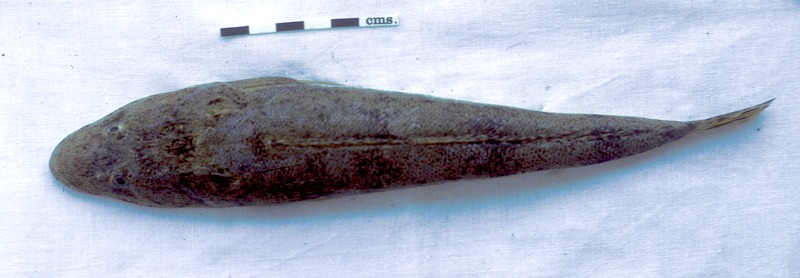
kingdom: Animalia
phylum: Chordata
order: Scorpaeniformes
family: Platycephalidae
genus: Platycephalus
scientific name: Platycephalus indicus
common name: Bartail flathead
